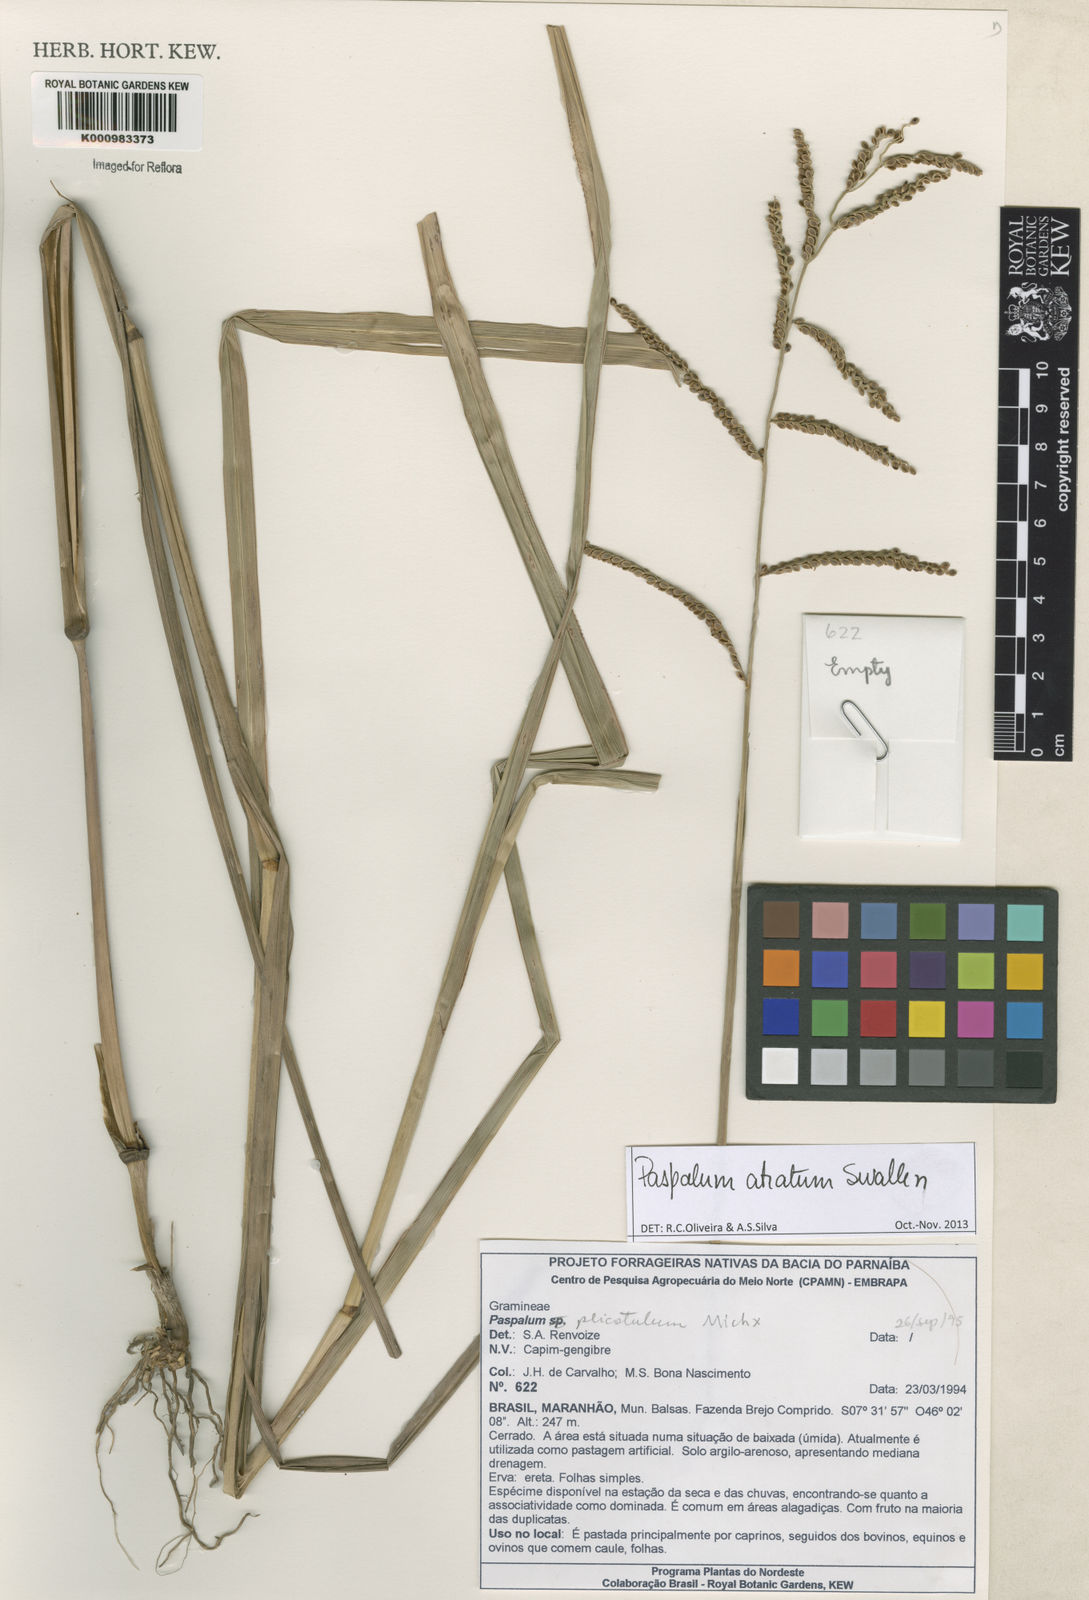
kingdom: Plantae
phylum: Tracheophyta
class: Liliopsida
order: Poales
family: Poaceae
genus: Paspalum
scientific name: Paspalum atratum
